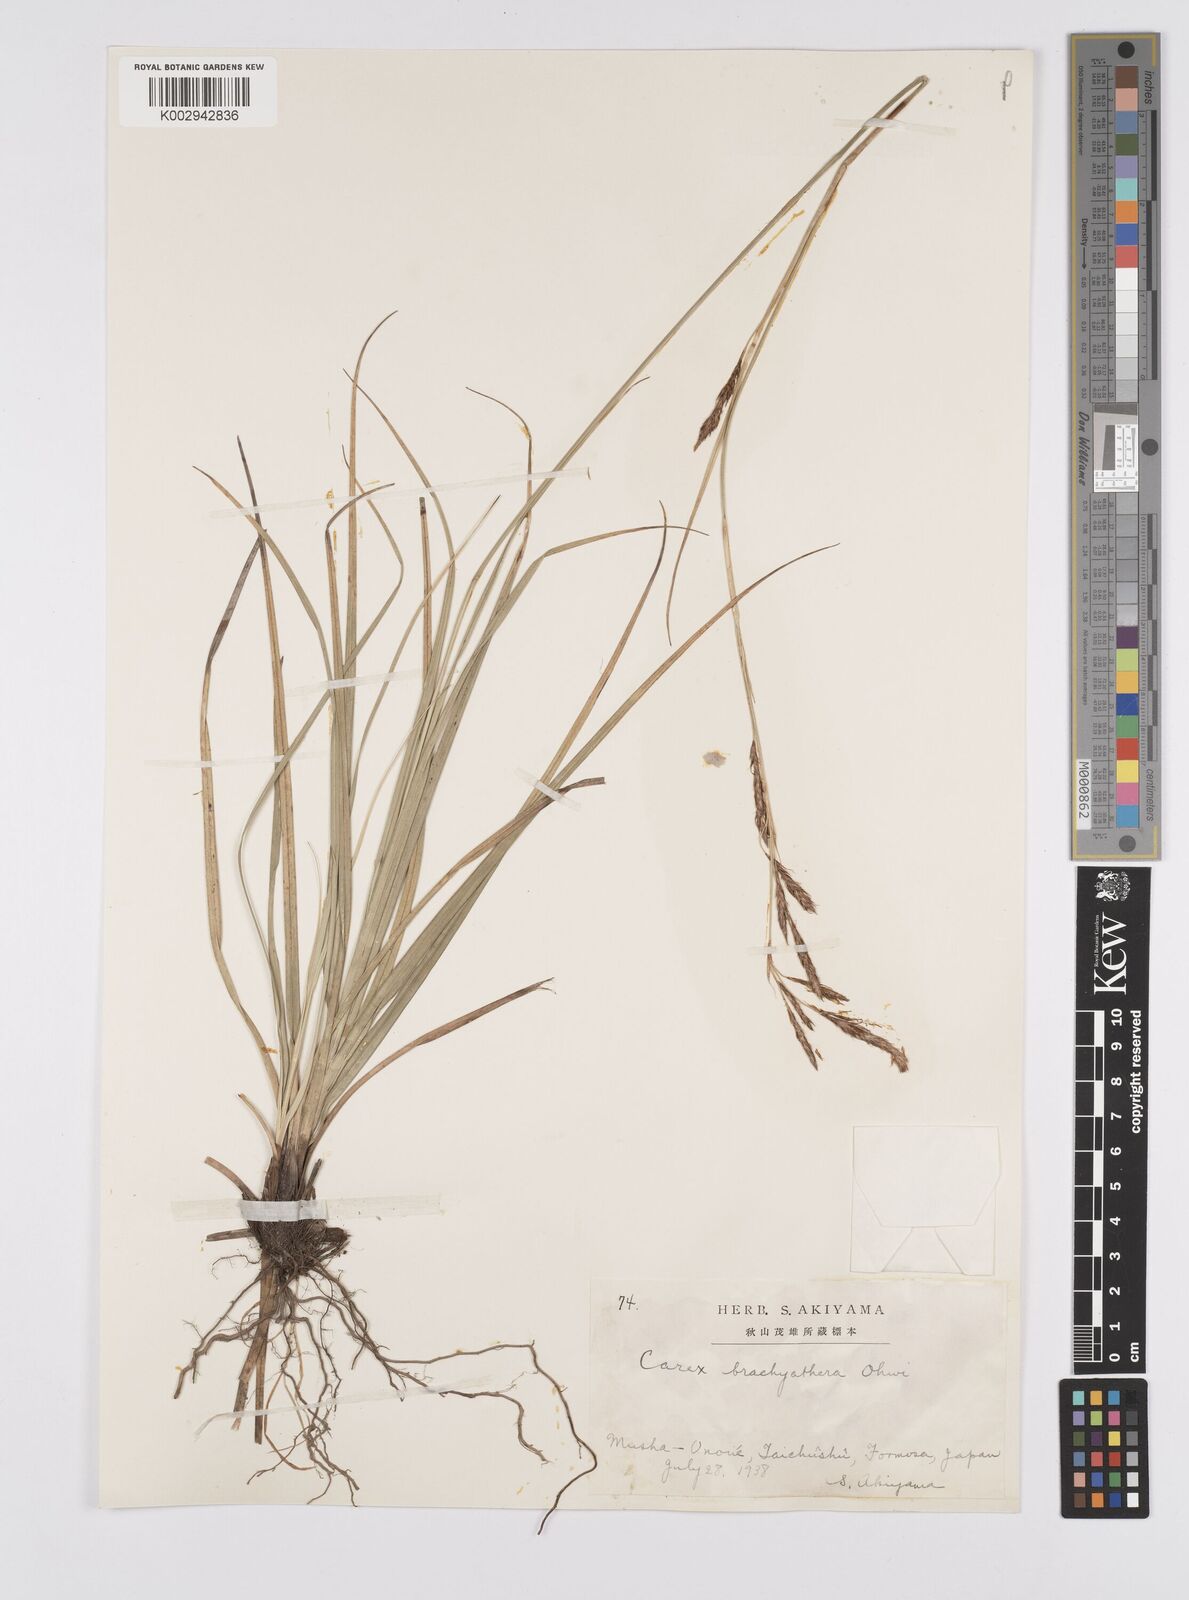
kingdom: Plantae
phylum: Tracheophyta
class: Liliopsida
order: Poales
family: Cyperaceae
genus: Carex
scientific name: Carex brachyanthera
